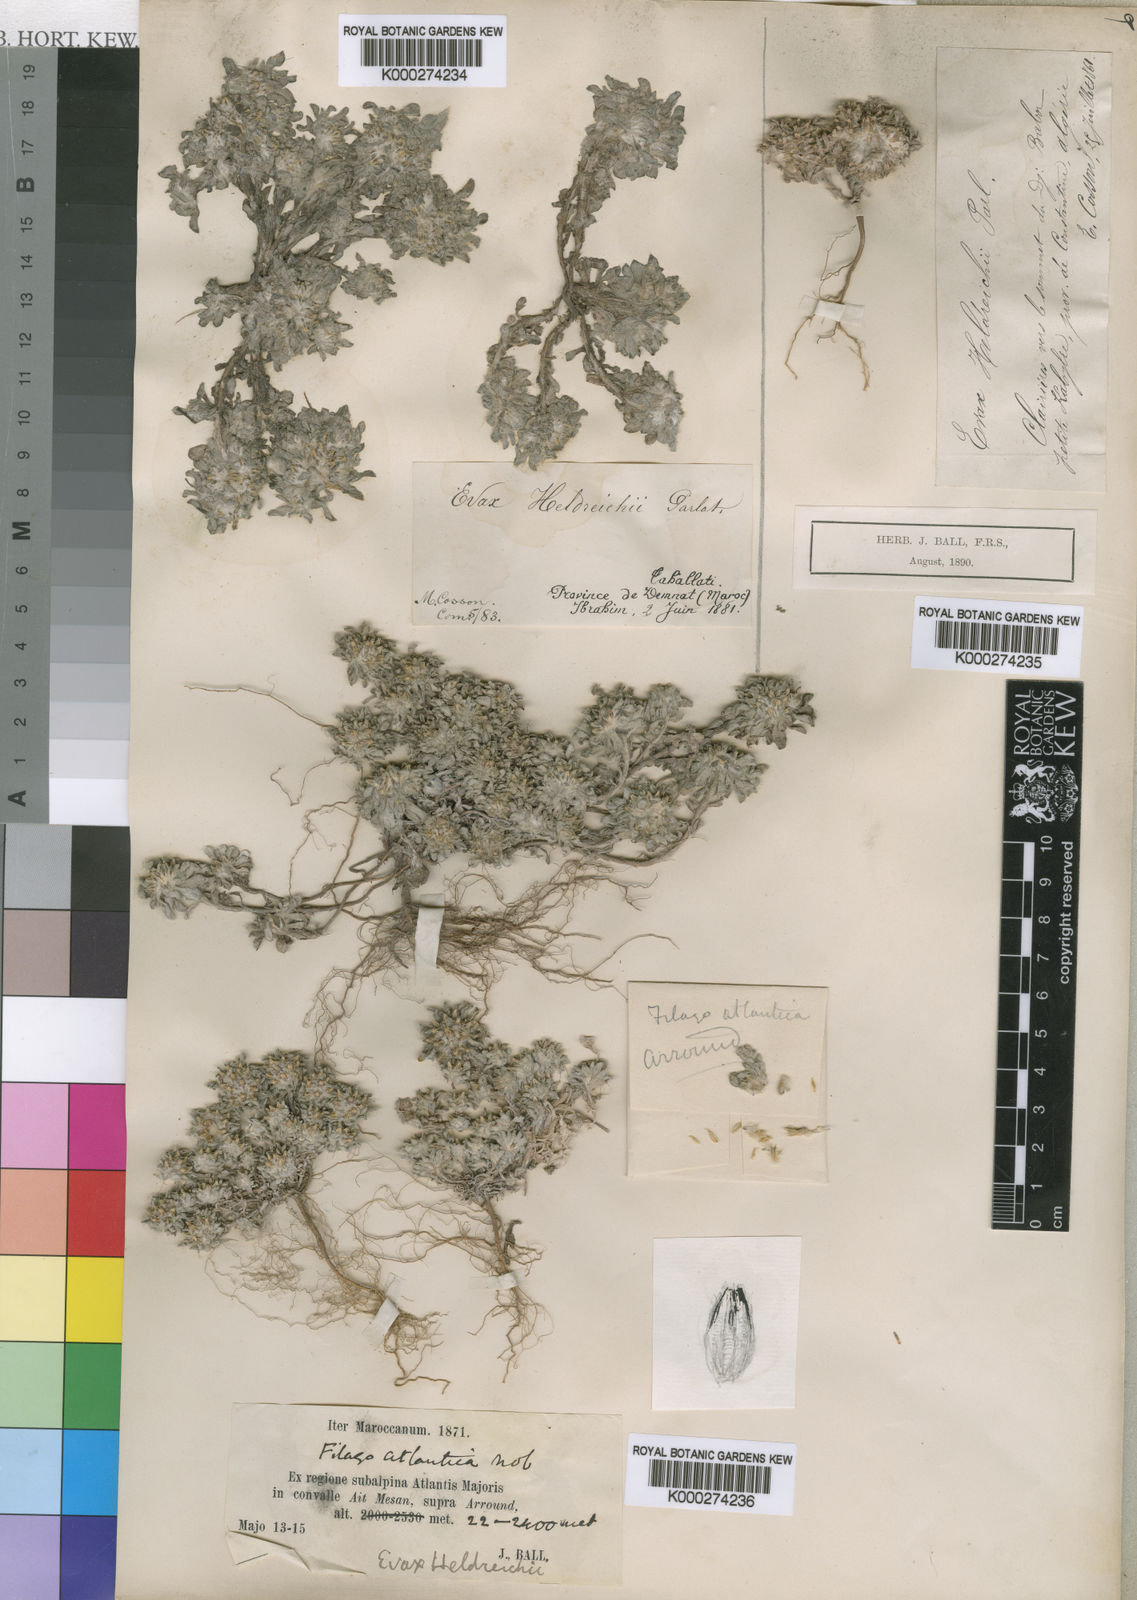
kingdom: Plantae
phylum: Tracheophyta
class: Magnoliopsida
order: Asterales
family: Asteraceae
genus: Filago
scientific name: Filago discolor
